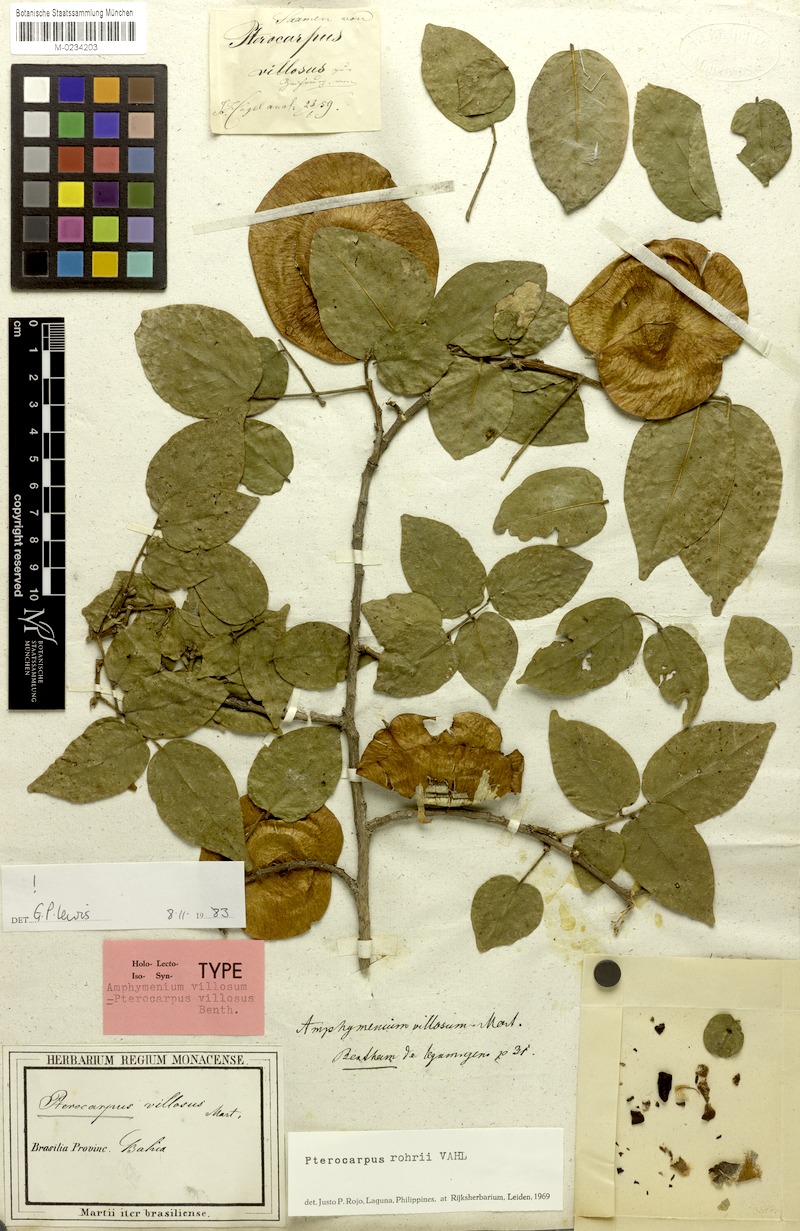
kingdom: Plantae
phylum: Tracheophyta
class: Magnoliopsida
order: Fabales
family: Fabaceae
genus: Pterocarpus
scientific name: Pterocarpus villosus
